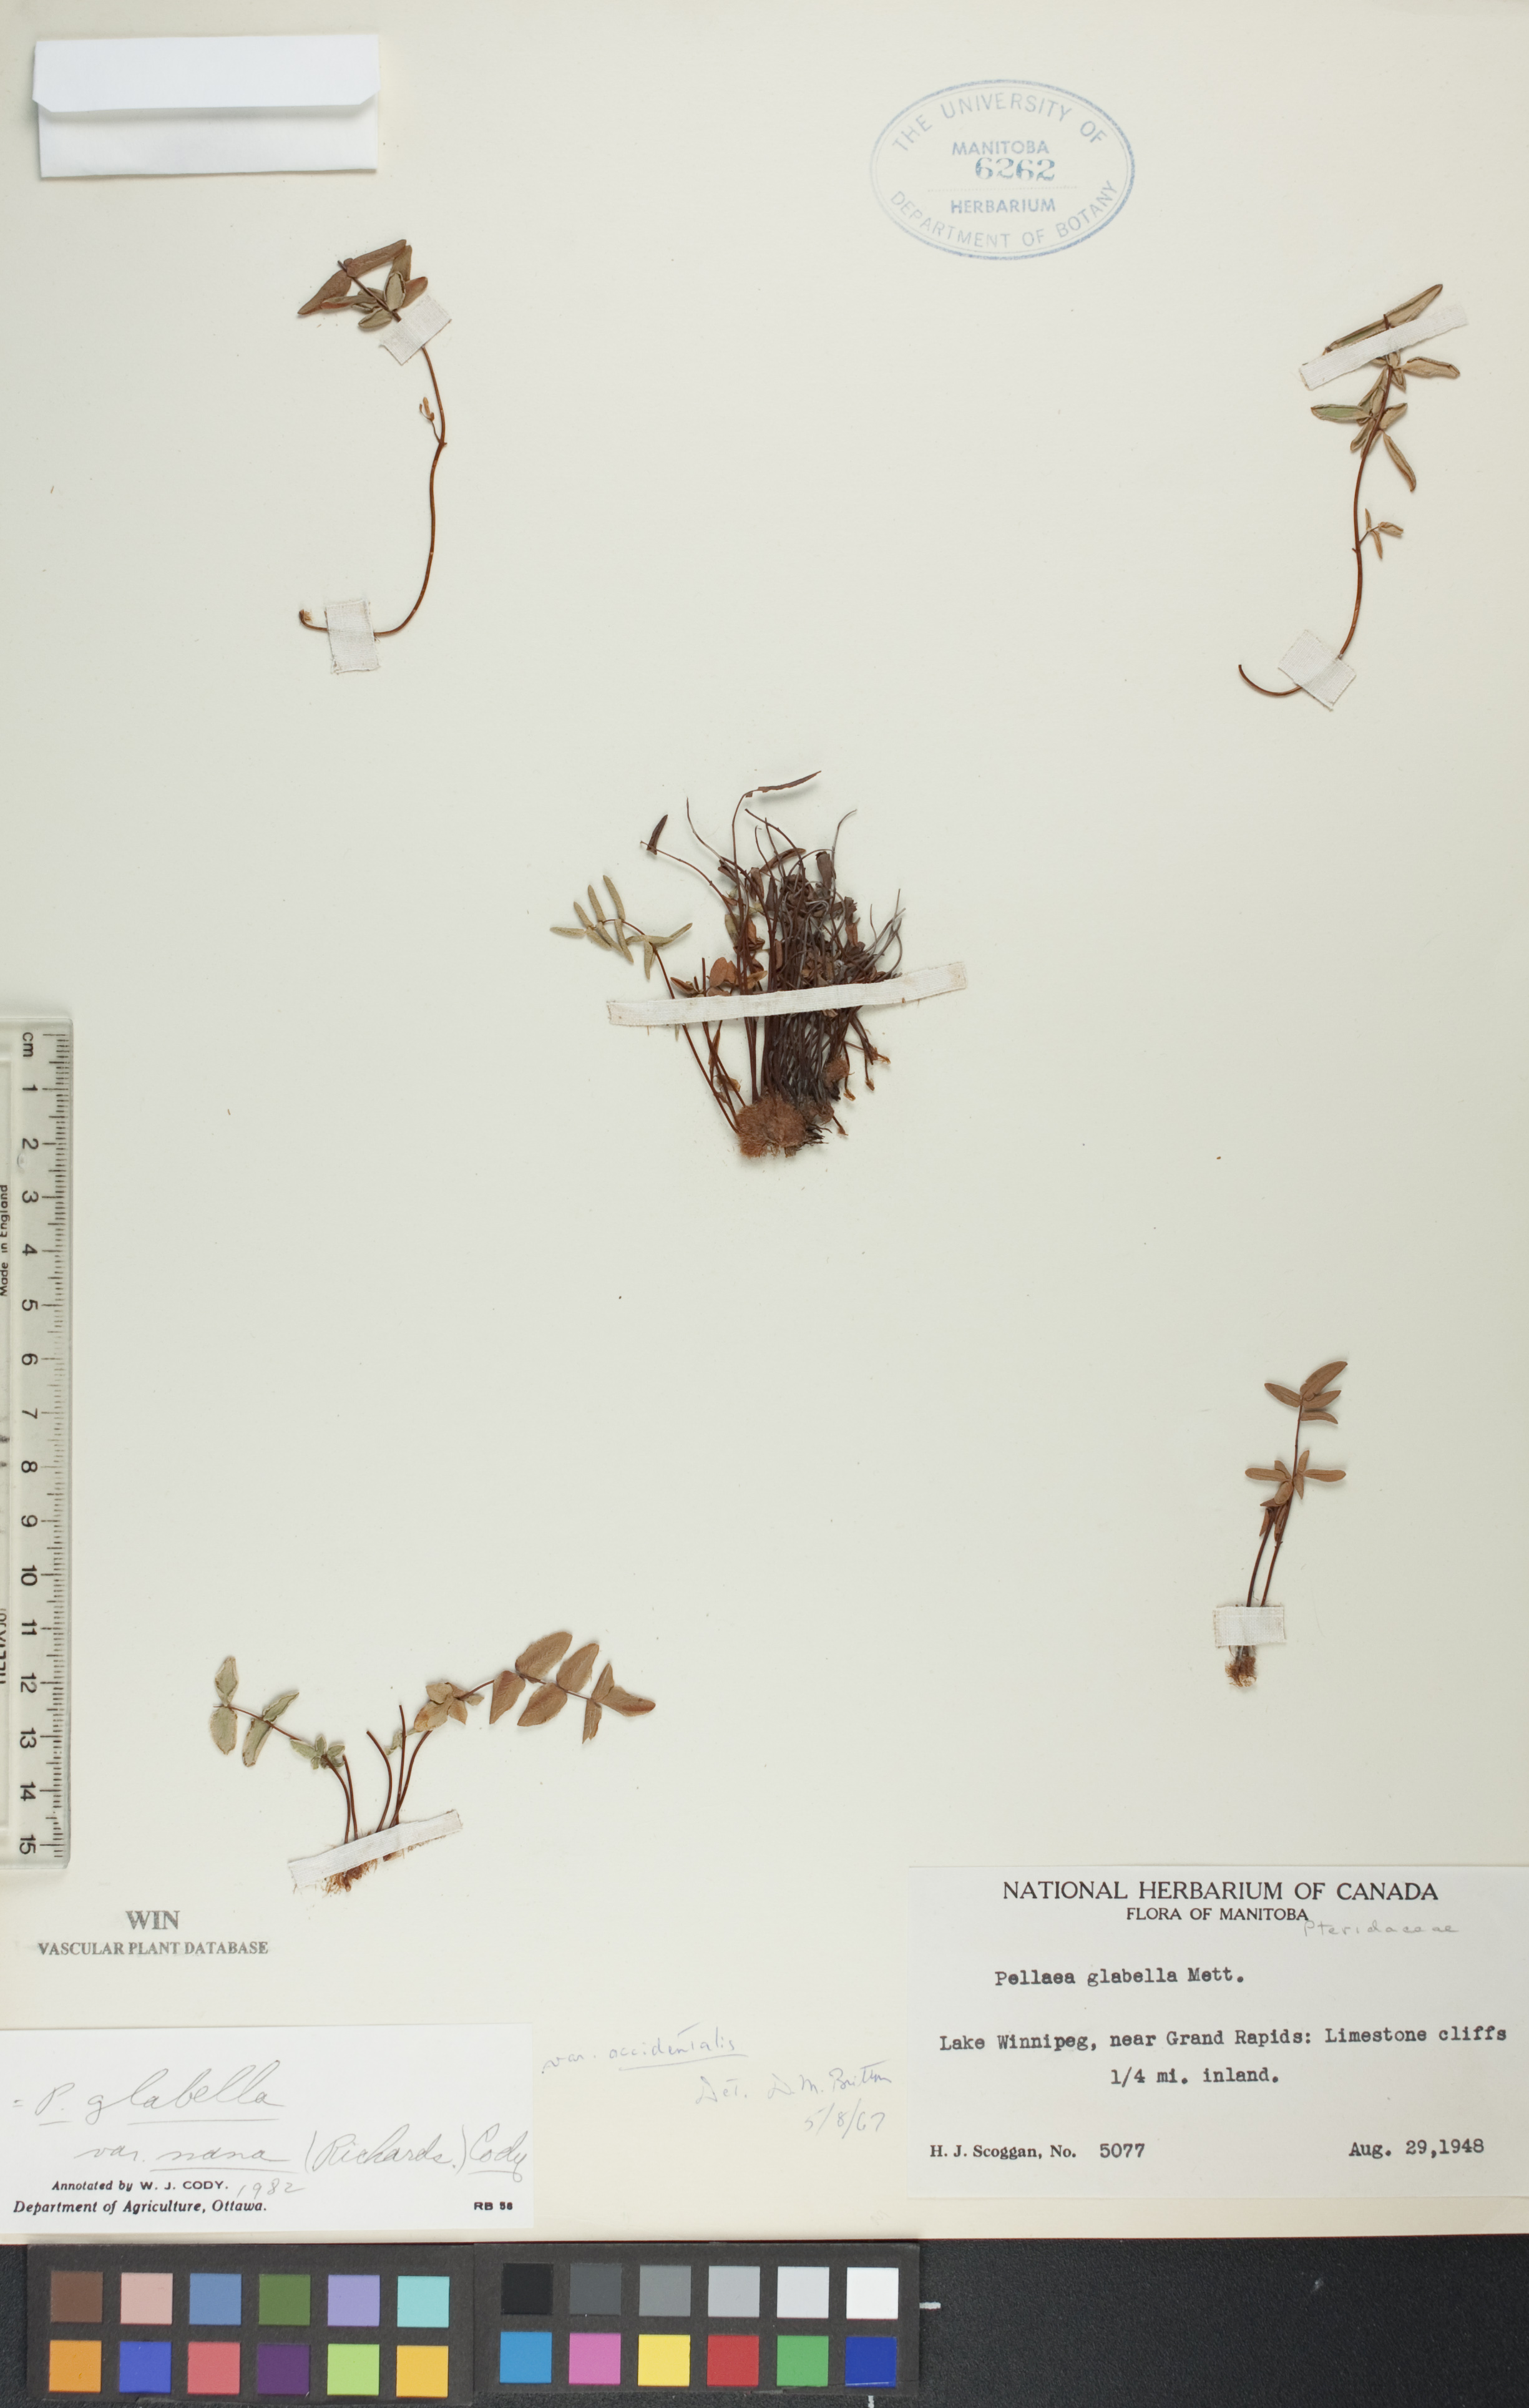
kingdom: Plantae
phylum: Tracheophyta
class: Polypodiopsida
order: Polypodiales
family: Pteridaceae
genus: Pellaea
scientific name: Pellaea glabella
